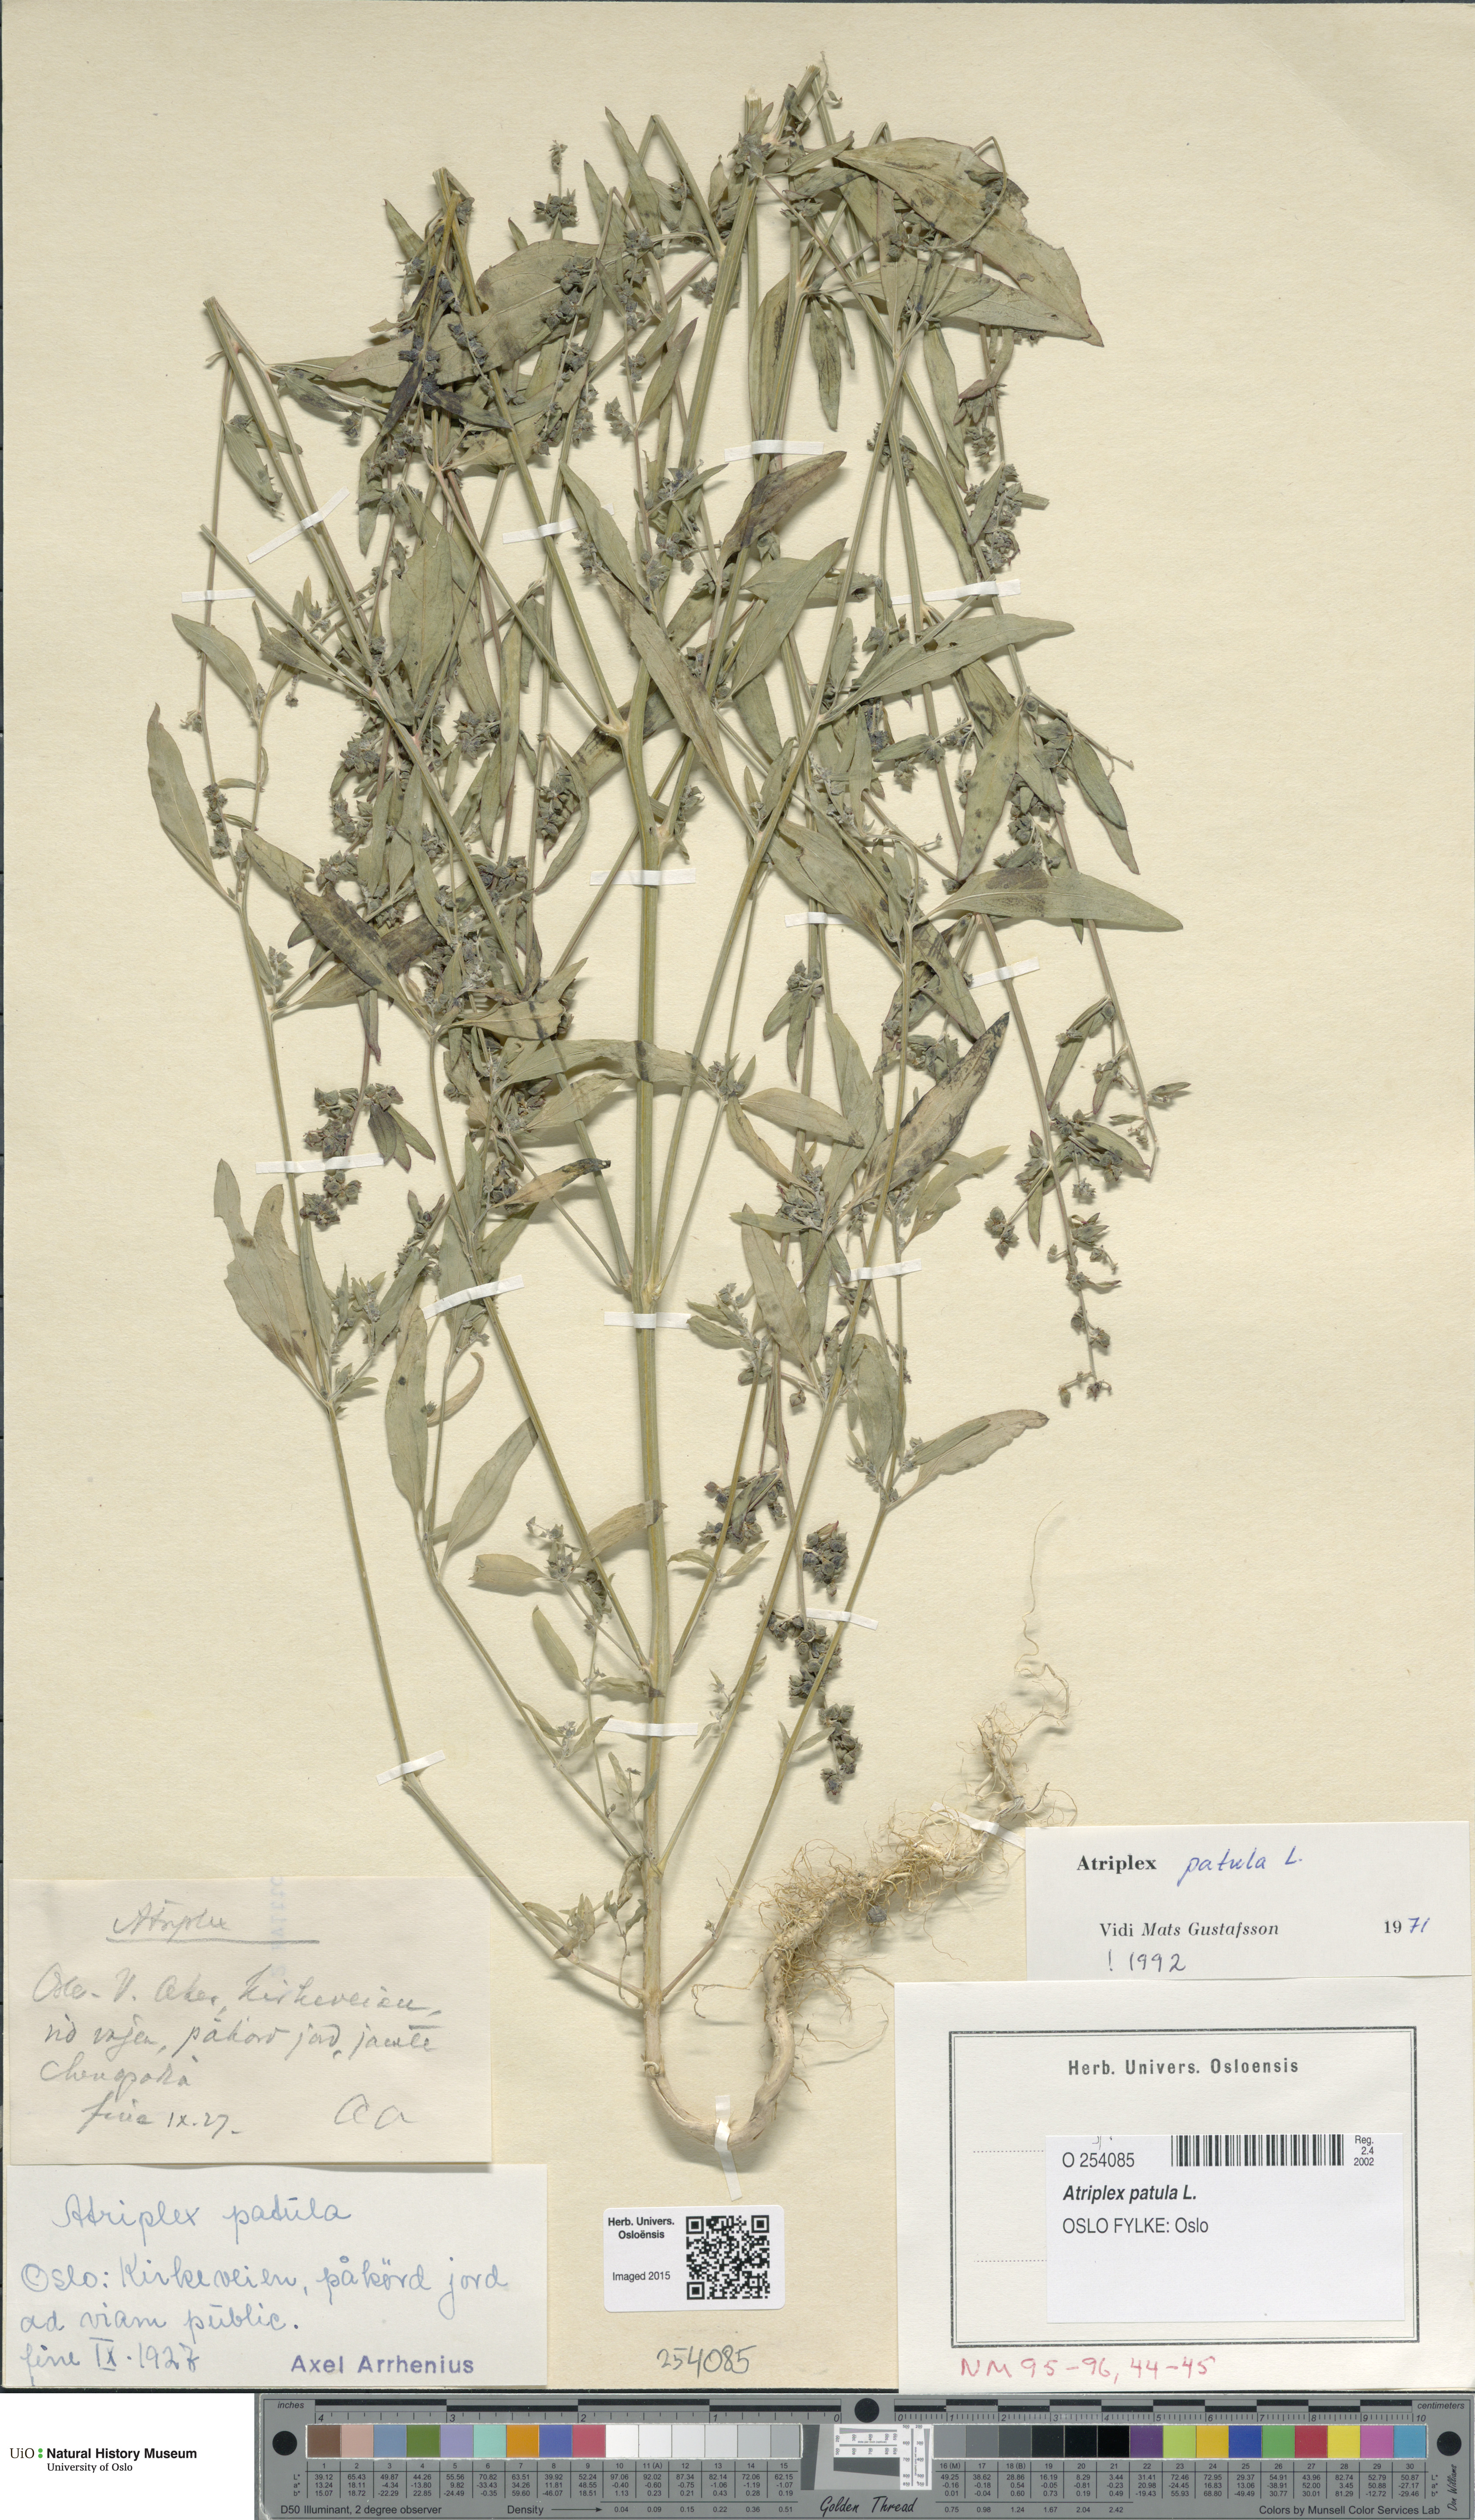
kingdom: Plantae
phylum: Tracheophyta
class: Magnoliopsida
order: Caryophyllales
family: Amaranthaceae
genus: Atriplex
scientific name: Atriplex patula
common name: Common orache
